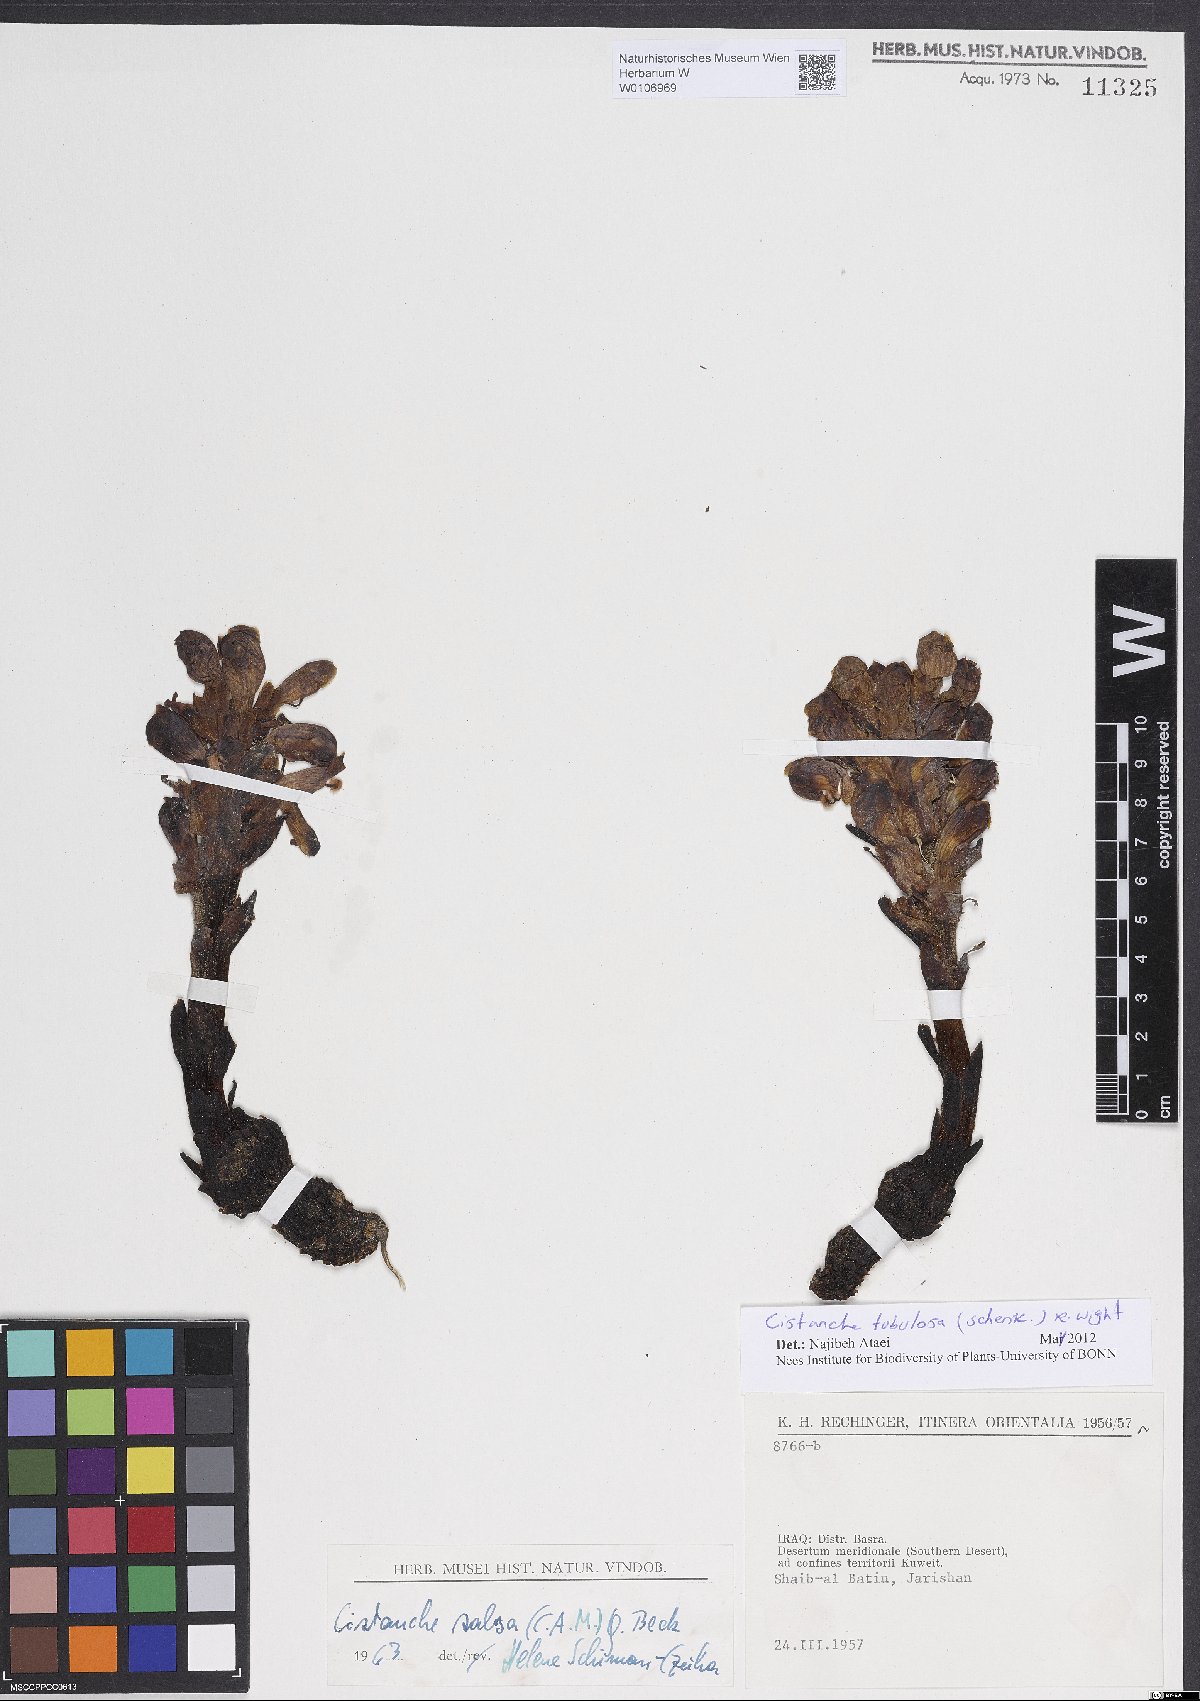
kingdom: Plantae
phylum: Tracheophyta
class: Magnoliopsida
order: Lamiales
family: Orobanchaceae
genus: Cistanche
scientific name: Cistanche tubulosa
